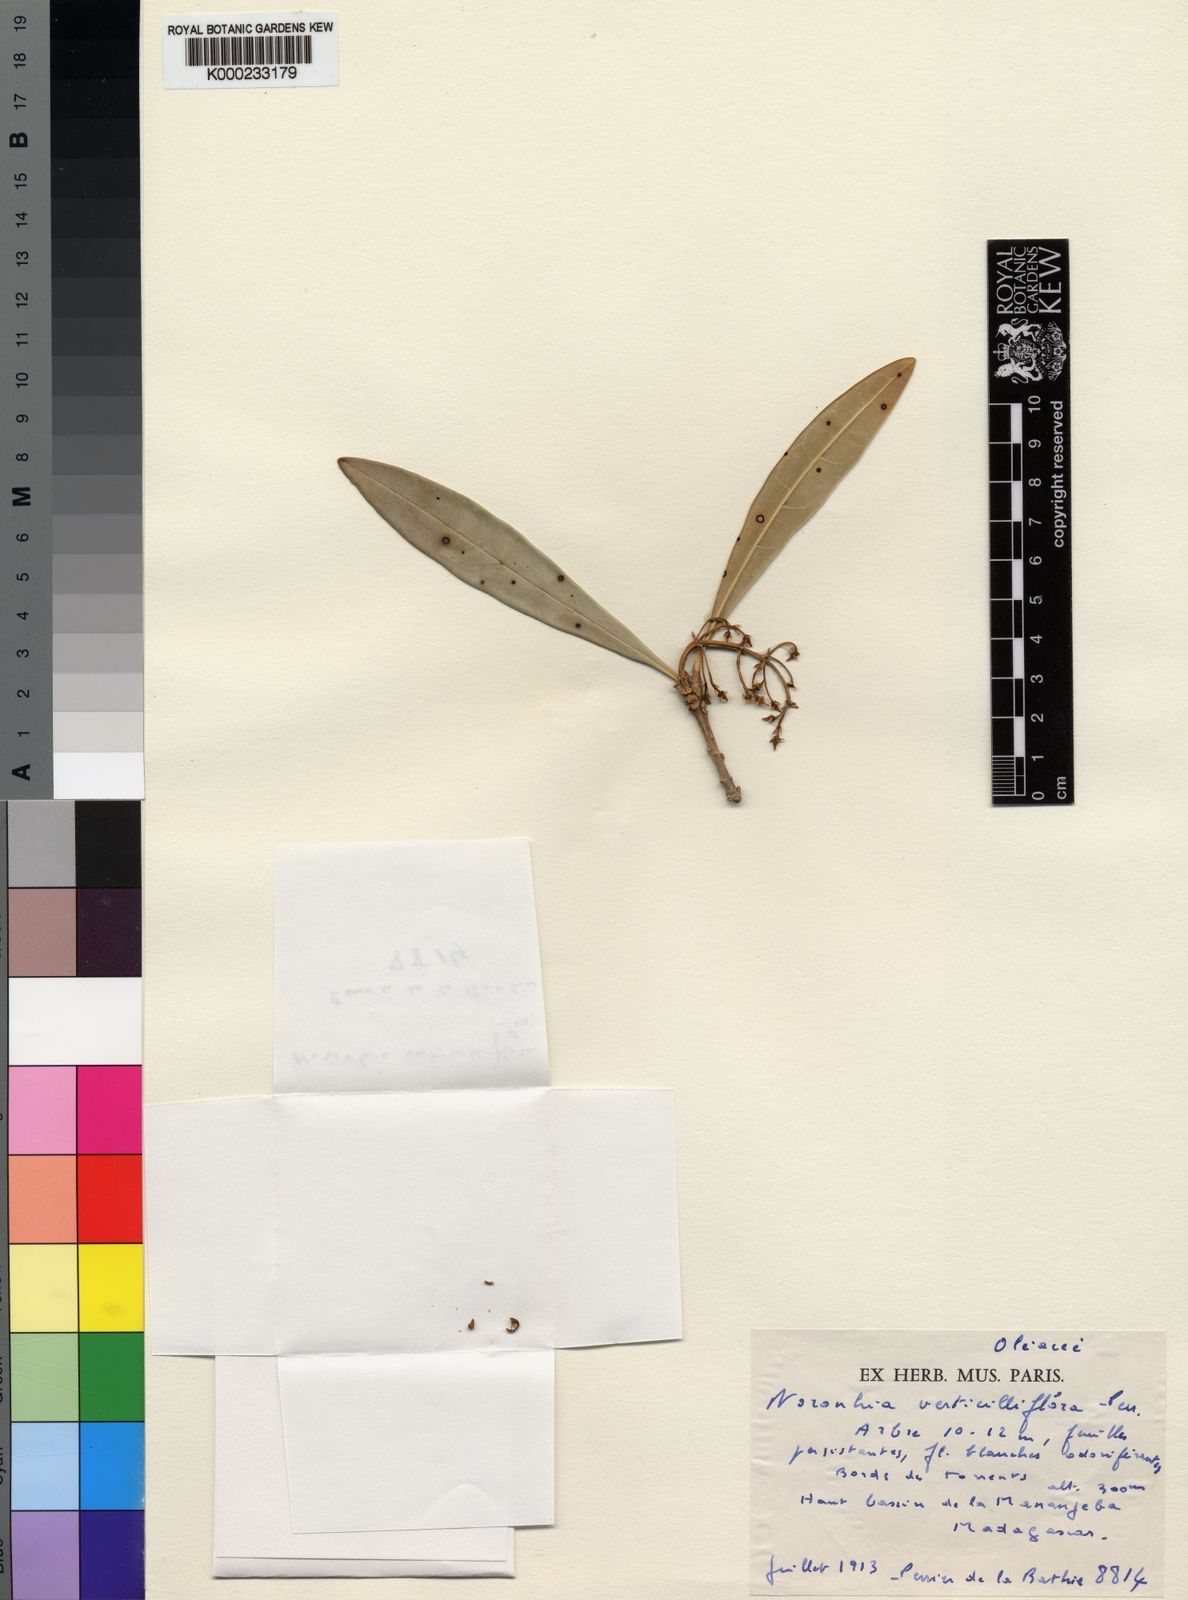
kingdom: Plantae
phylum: Tracheophyta
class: Magnoliopsida
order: Lamiales
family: Oleaceae
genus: Noronhia
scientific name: Noronhia verticilliflora
